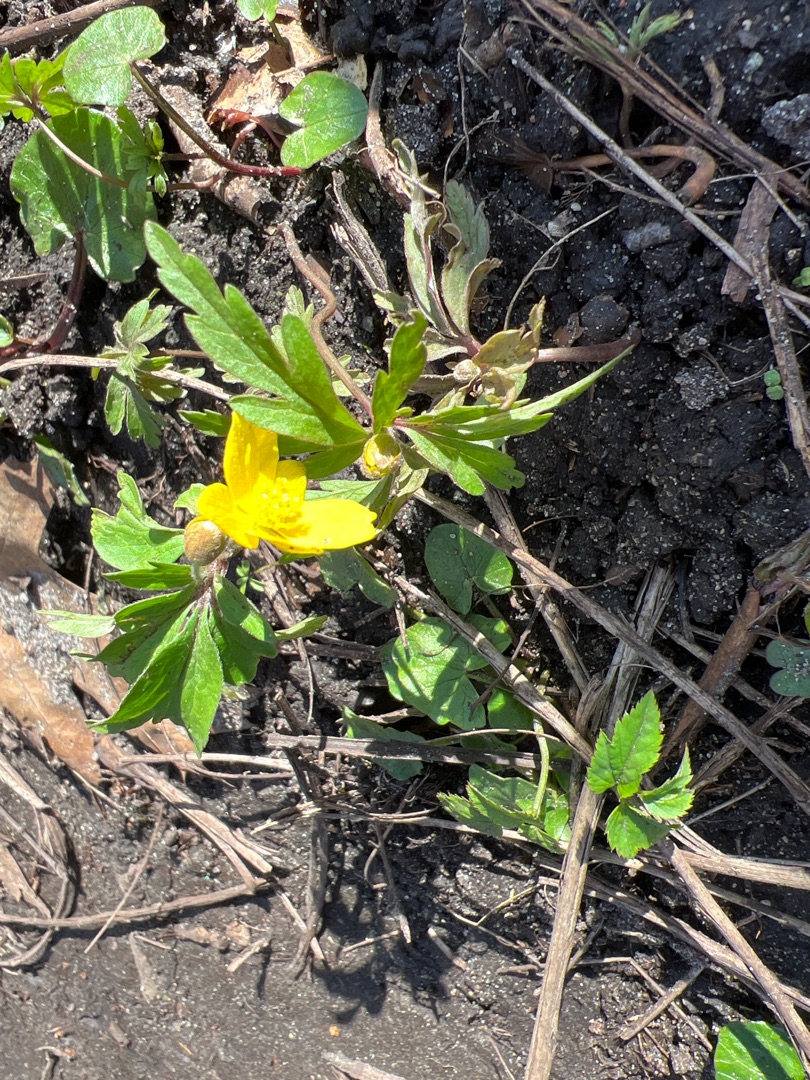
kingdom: Plantae
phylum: Tracheophyta
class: Magnoliopsida
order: Ranunculales
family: Ranunculaceae
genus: Anemone
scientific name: Anemone ranunculoides
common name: Gul anemone
